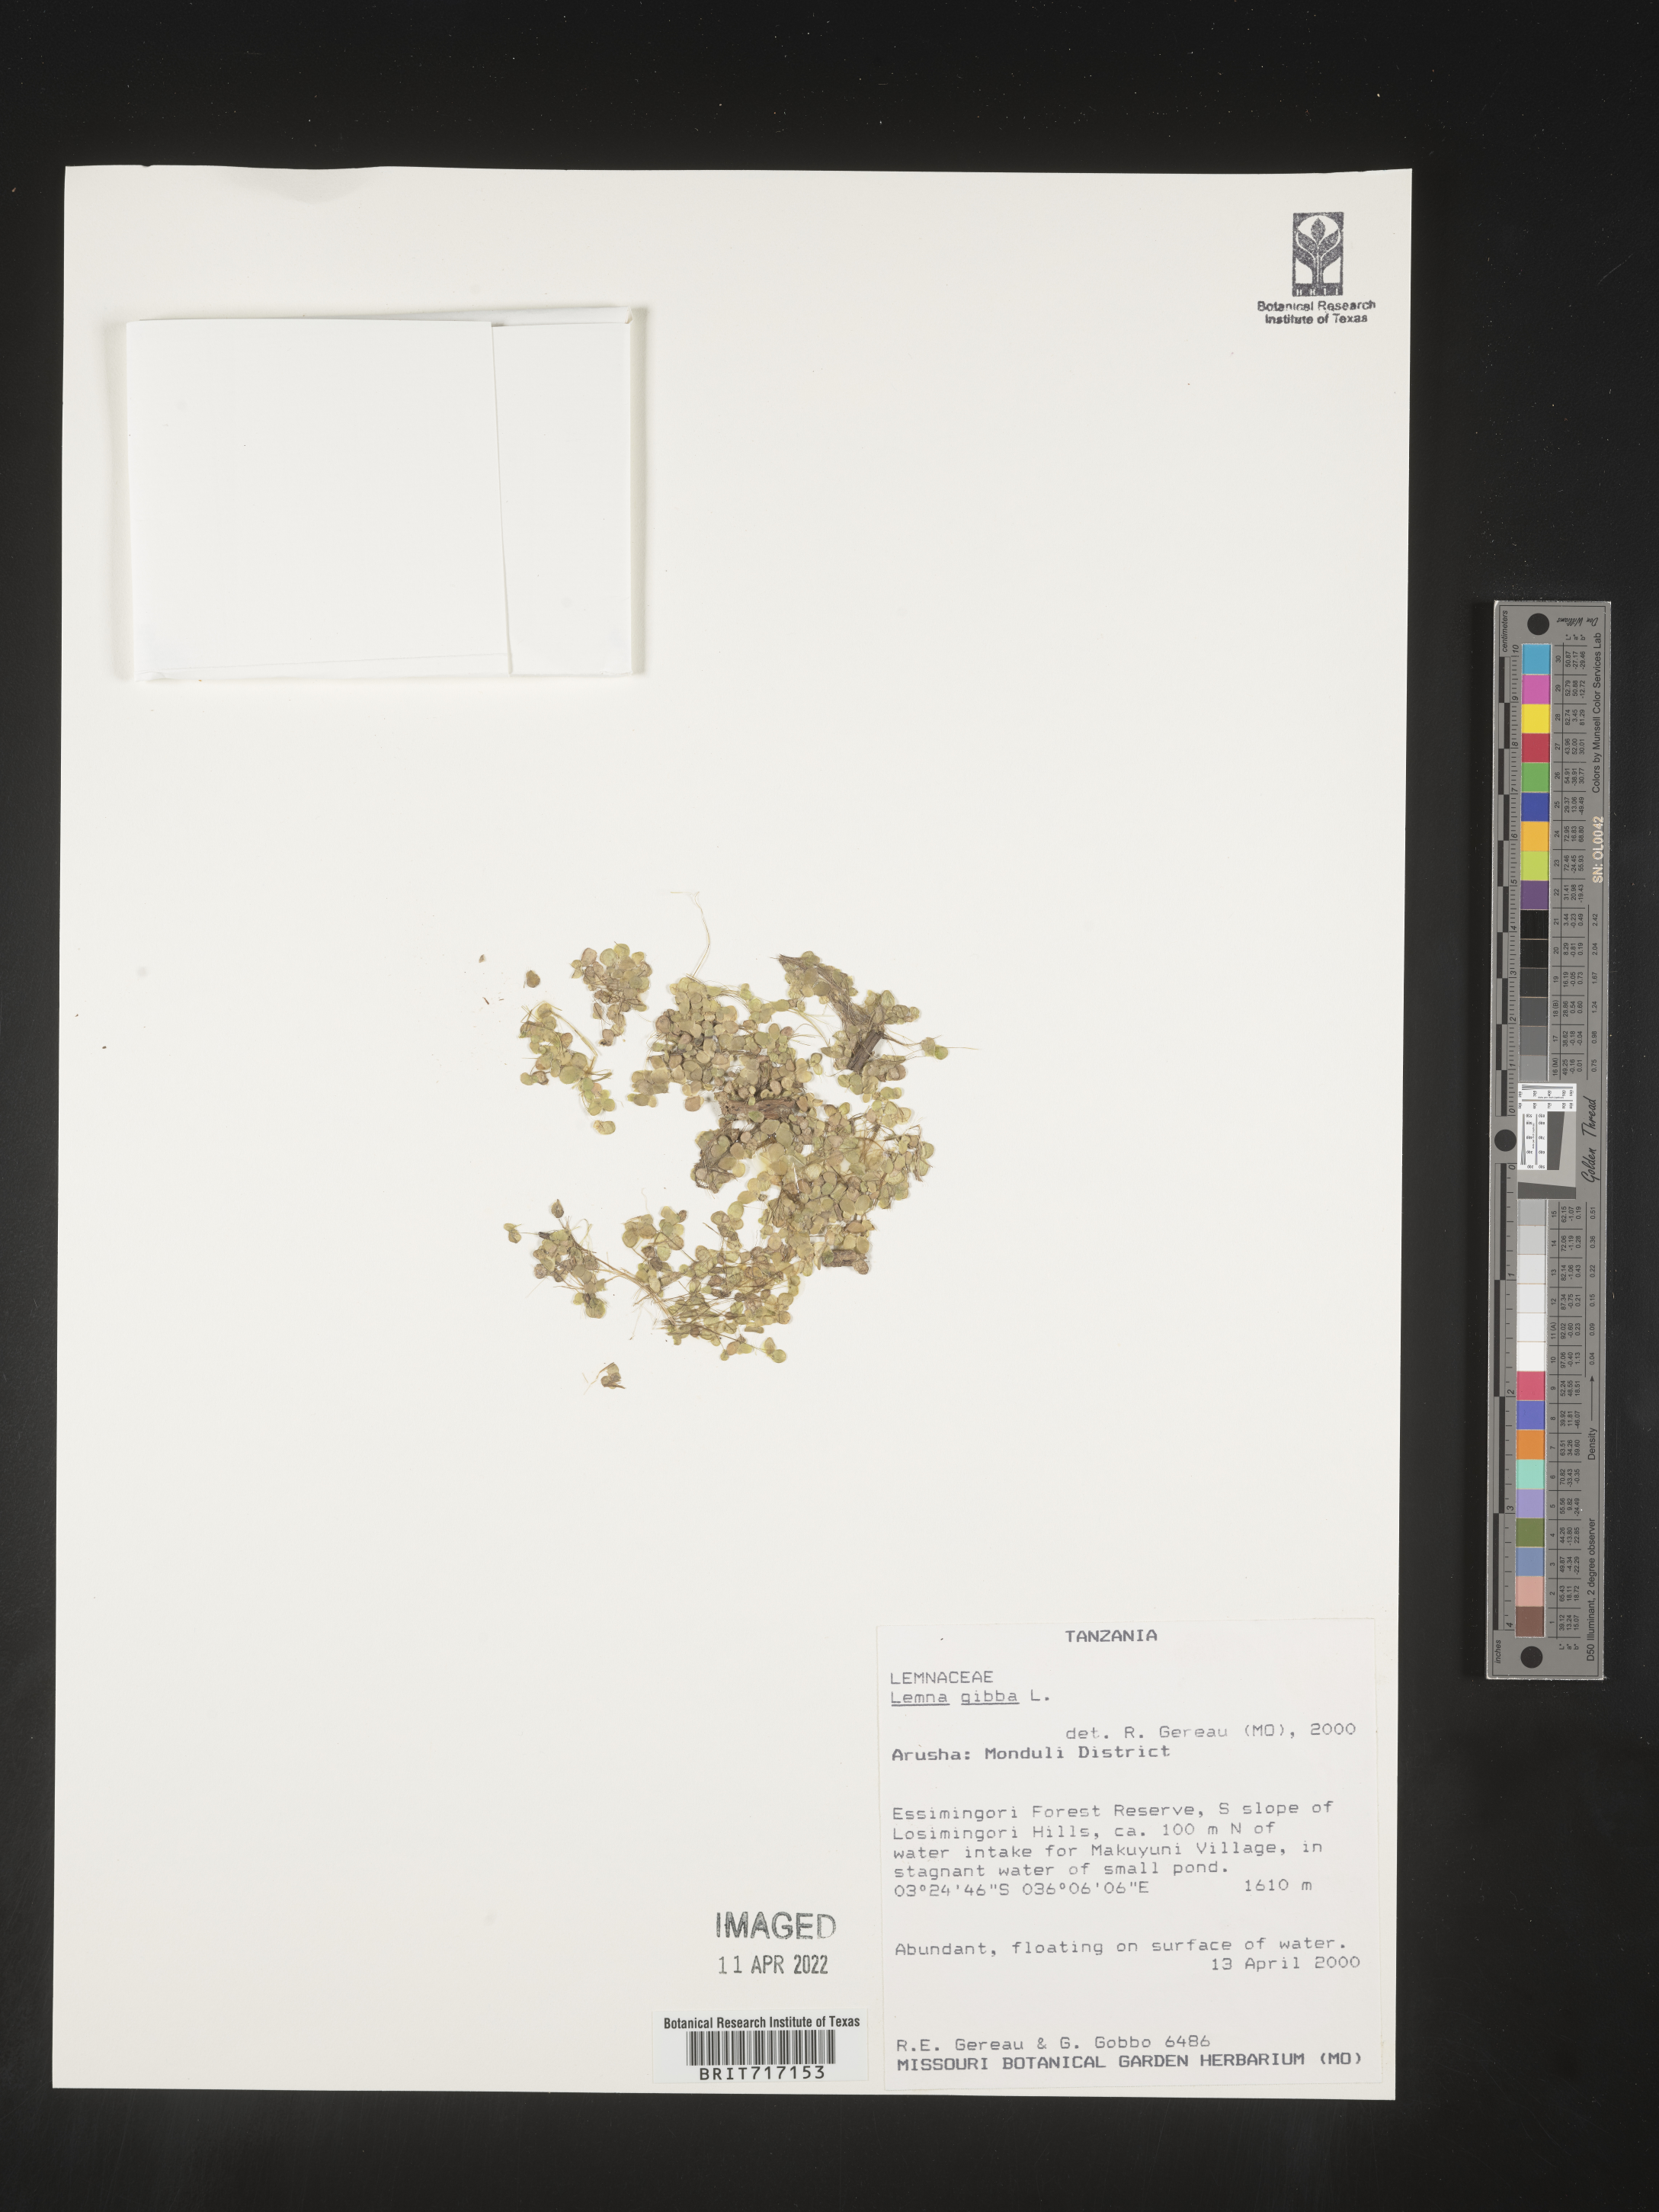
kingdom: Plantae
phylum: Tracheophyta
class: Liliopsida
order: Alismatales
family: Araceae
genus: Lemna
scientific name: Lemna
